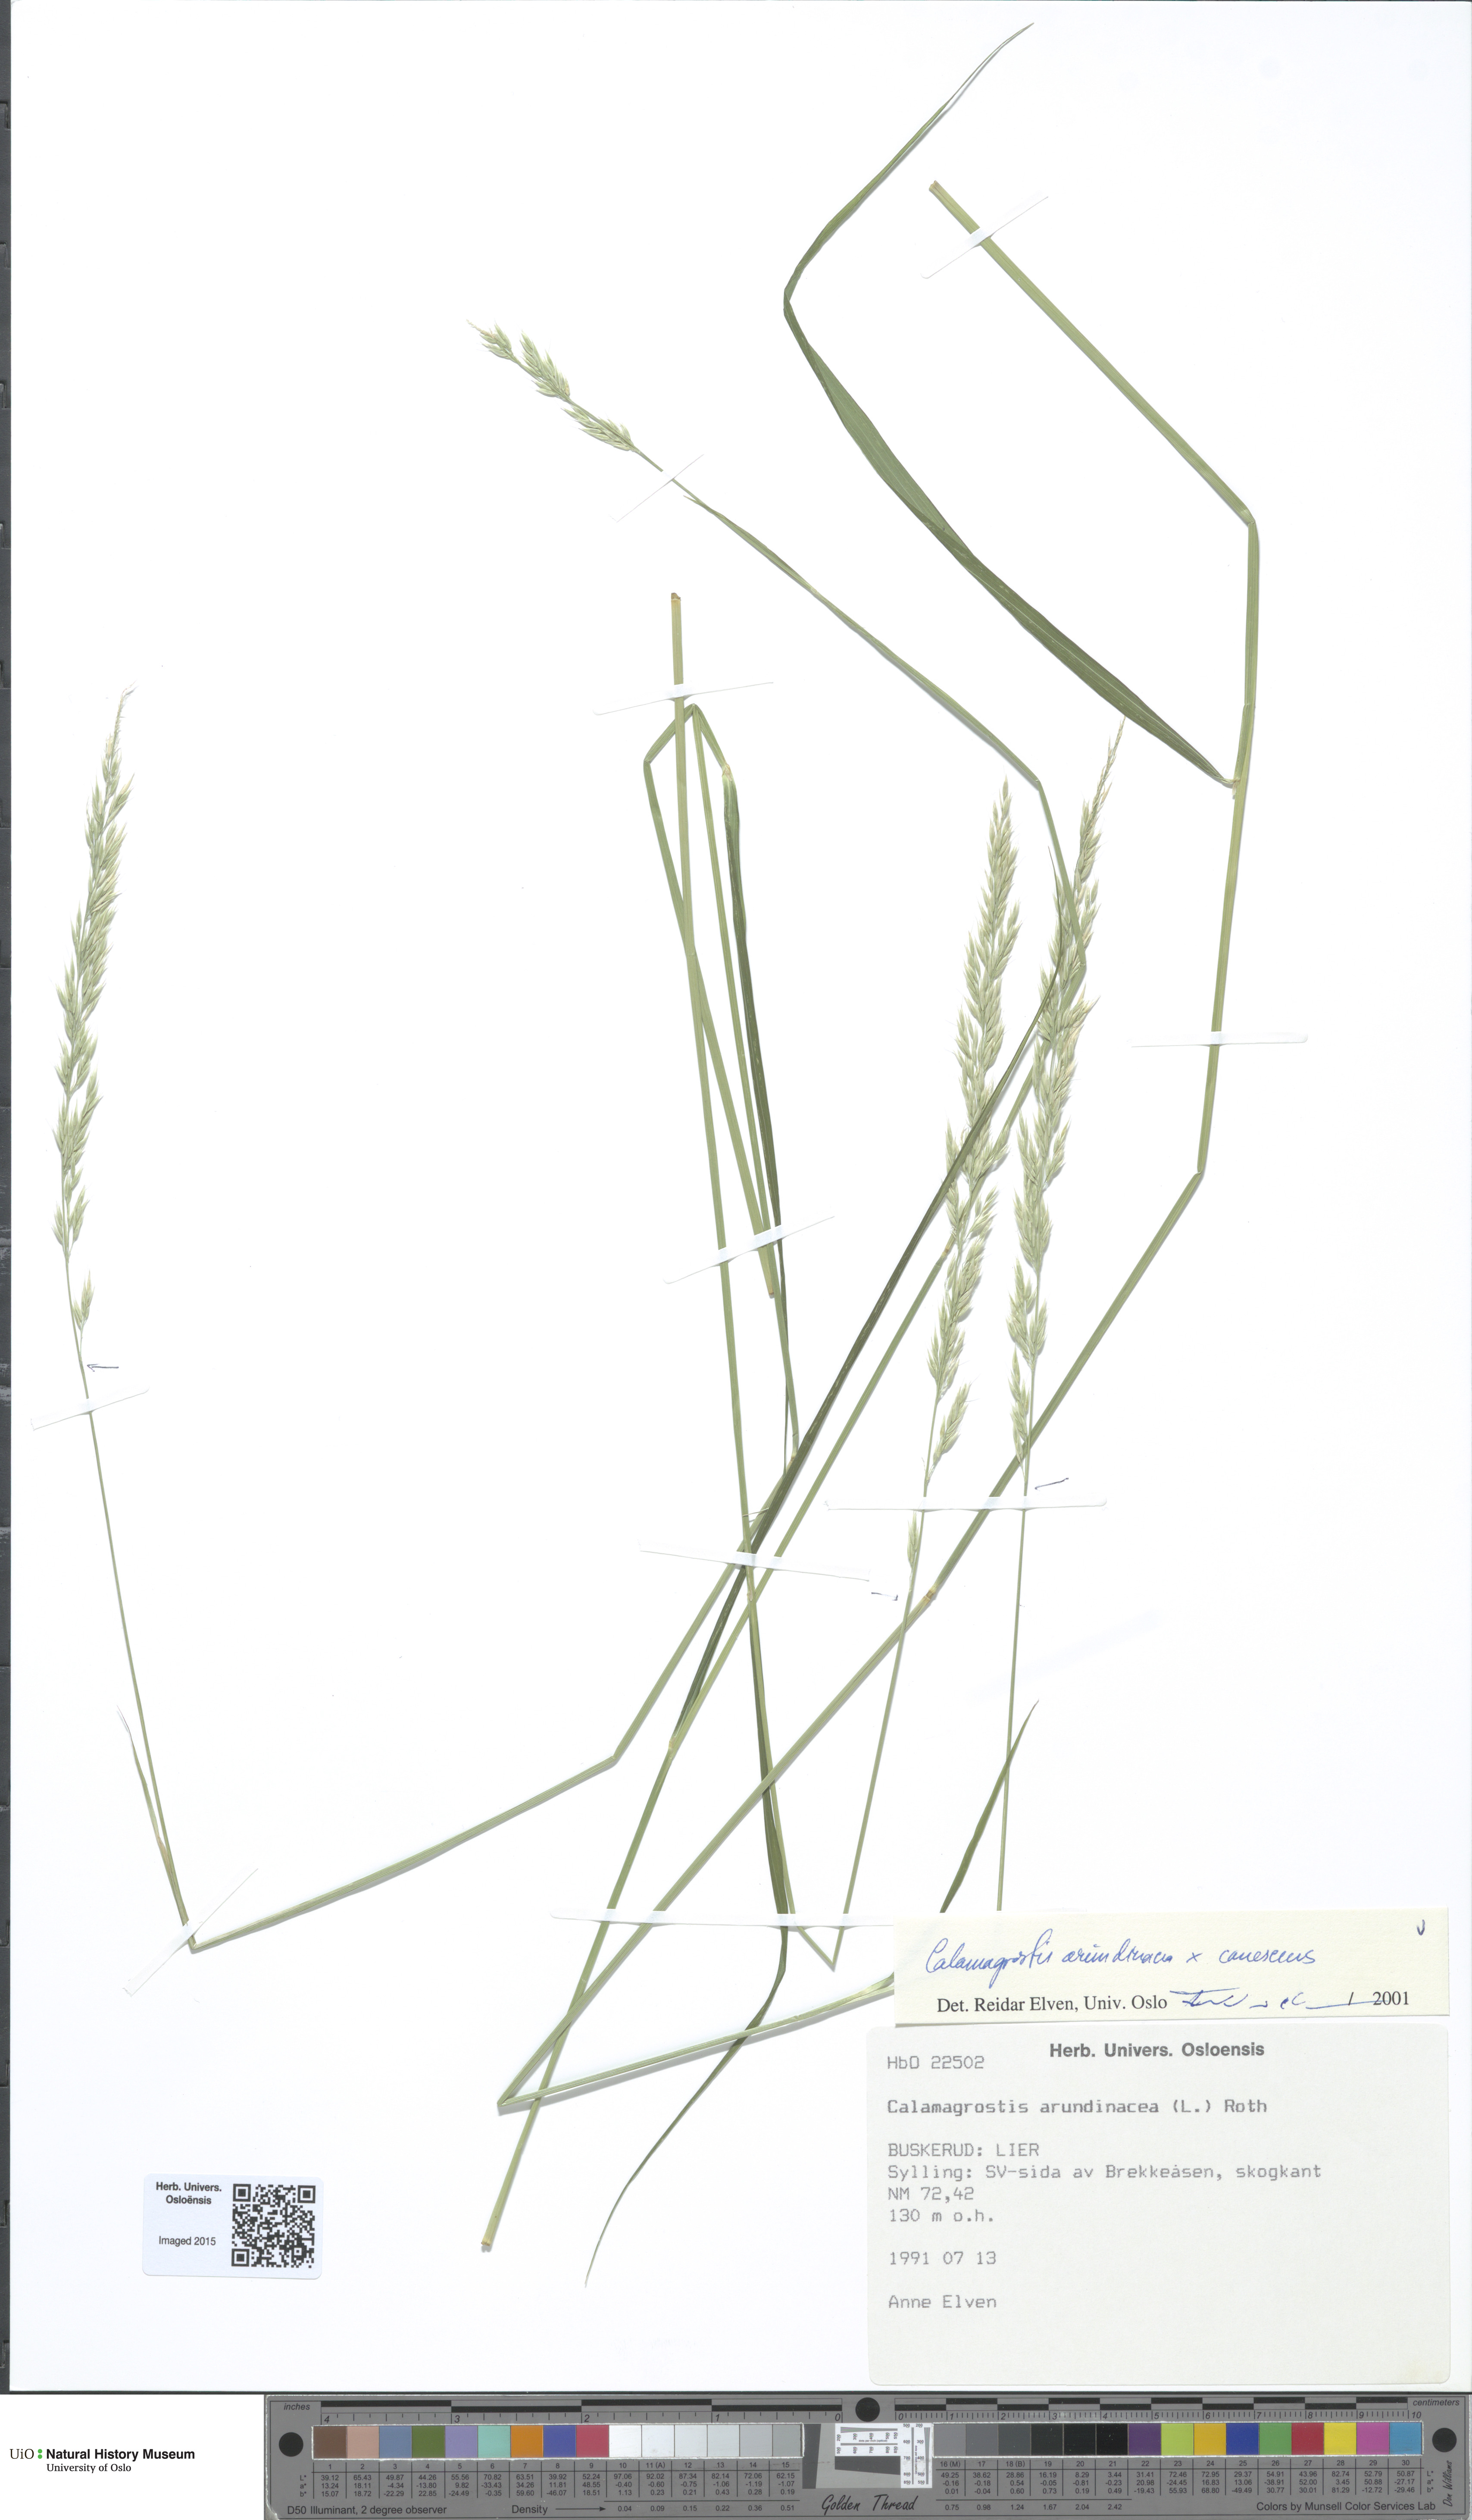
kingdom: Plantae
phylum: Tracheophyta
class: Liliopsida
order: Poales
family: Poaceae
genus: Calamagrostis
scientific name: Calamagrostis
